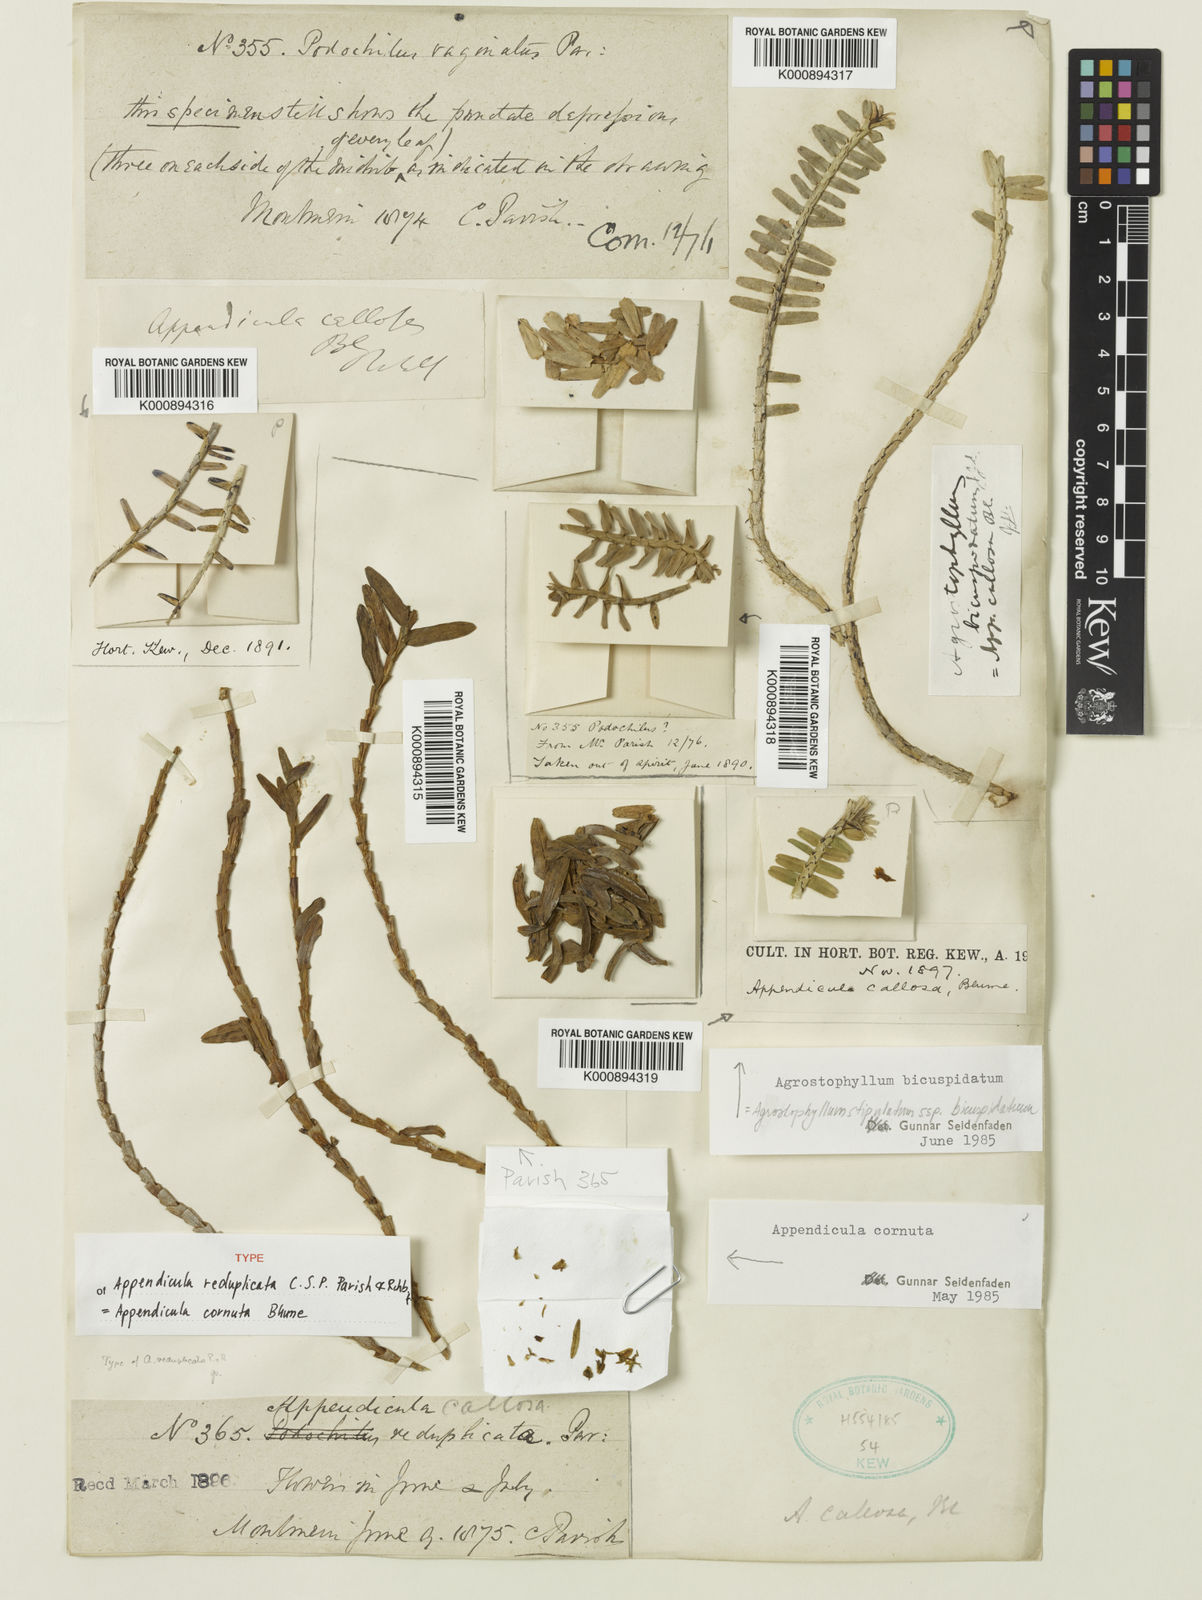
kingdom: Plantae
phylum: Tracheophyta
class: Liliopsida
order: Asparagales
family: Orchidaceae
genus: Appendicula
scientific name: Appendicula cornuta
